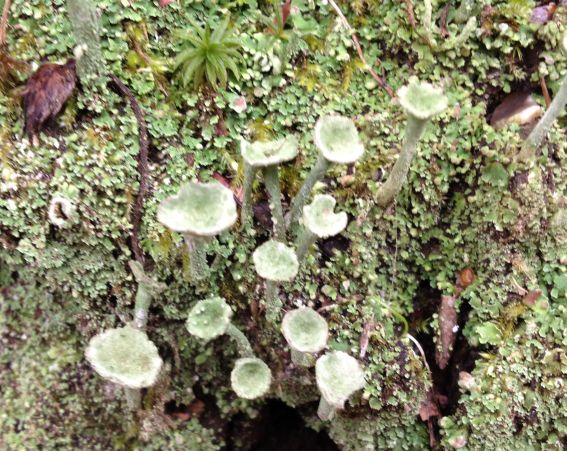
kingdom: Fungi
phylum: Ascomycota
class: Lecanoromycetes
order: Lecanorales
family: Cladoniaceae
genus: Cladonia
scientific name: Cladonia fimbriata
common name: bleggrøn bægerlav
